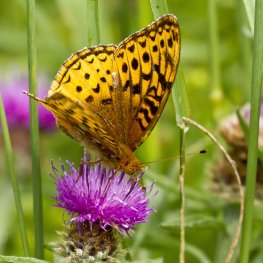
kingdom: Animalia
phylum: Arthropoda
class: Insecta
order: Lepidoptera
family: Nymphalidae
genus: Speyeria
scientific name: Speyeria cybele
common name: Great Spangled Fritillary
